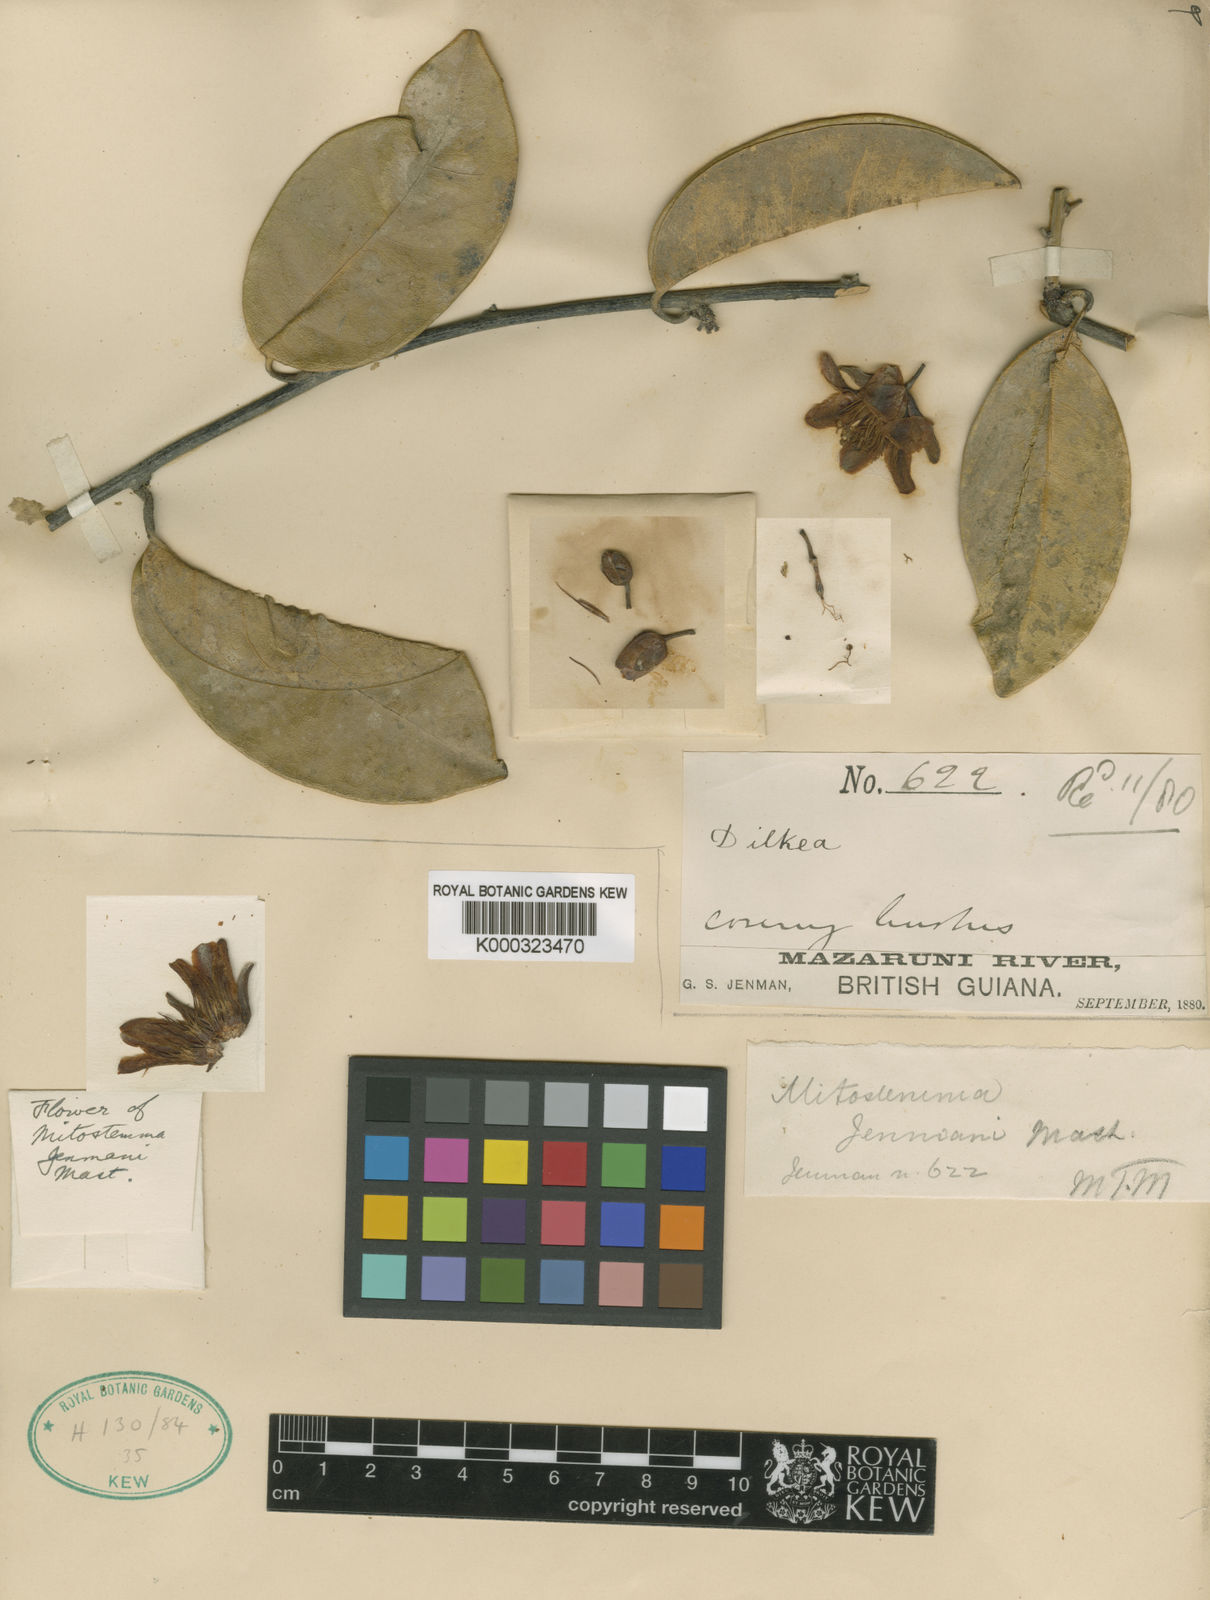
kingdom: Plantae
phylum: Tracheophyta
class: Magnoliopsida
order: Malpighiales
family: Passifloraceae
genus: Mitostemma
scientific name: Mitostemma jenmanii
